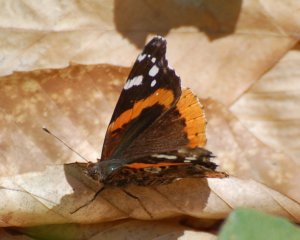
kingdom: Animalia
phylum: Arthropoda
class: Insecta
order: Lepidoptera
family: Nymphalidae
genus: Vanessa
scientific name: Vanessa atalanta
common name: Red Admiral
